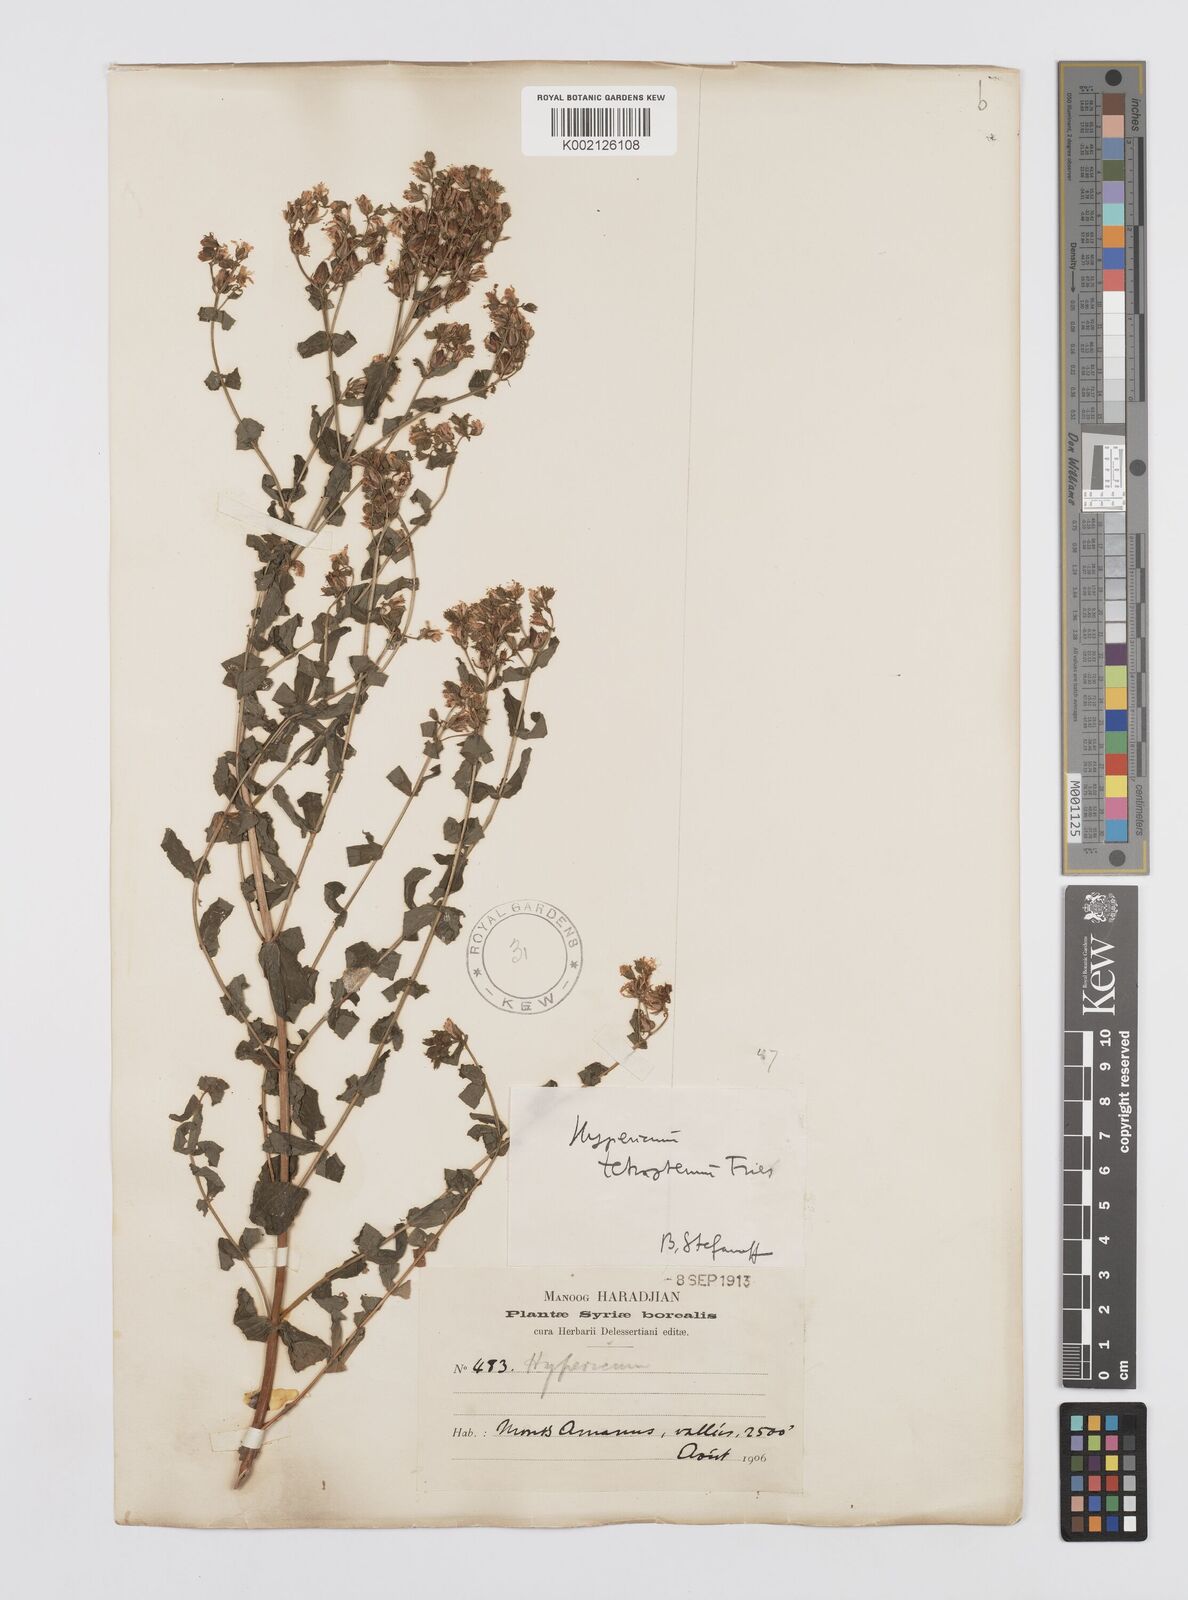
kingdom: Plantae
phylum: Tracheophyta
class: Magnoliopsida
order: Malpighiales
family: Hypericaceae
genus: Hypericum
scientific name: Hypericum tetrapterum
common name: Square-stalked st. john's-wort
